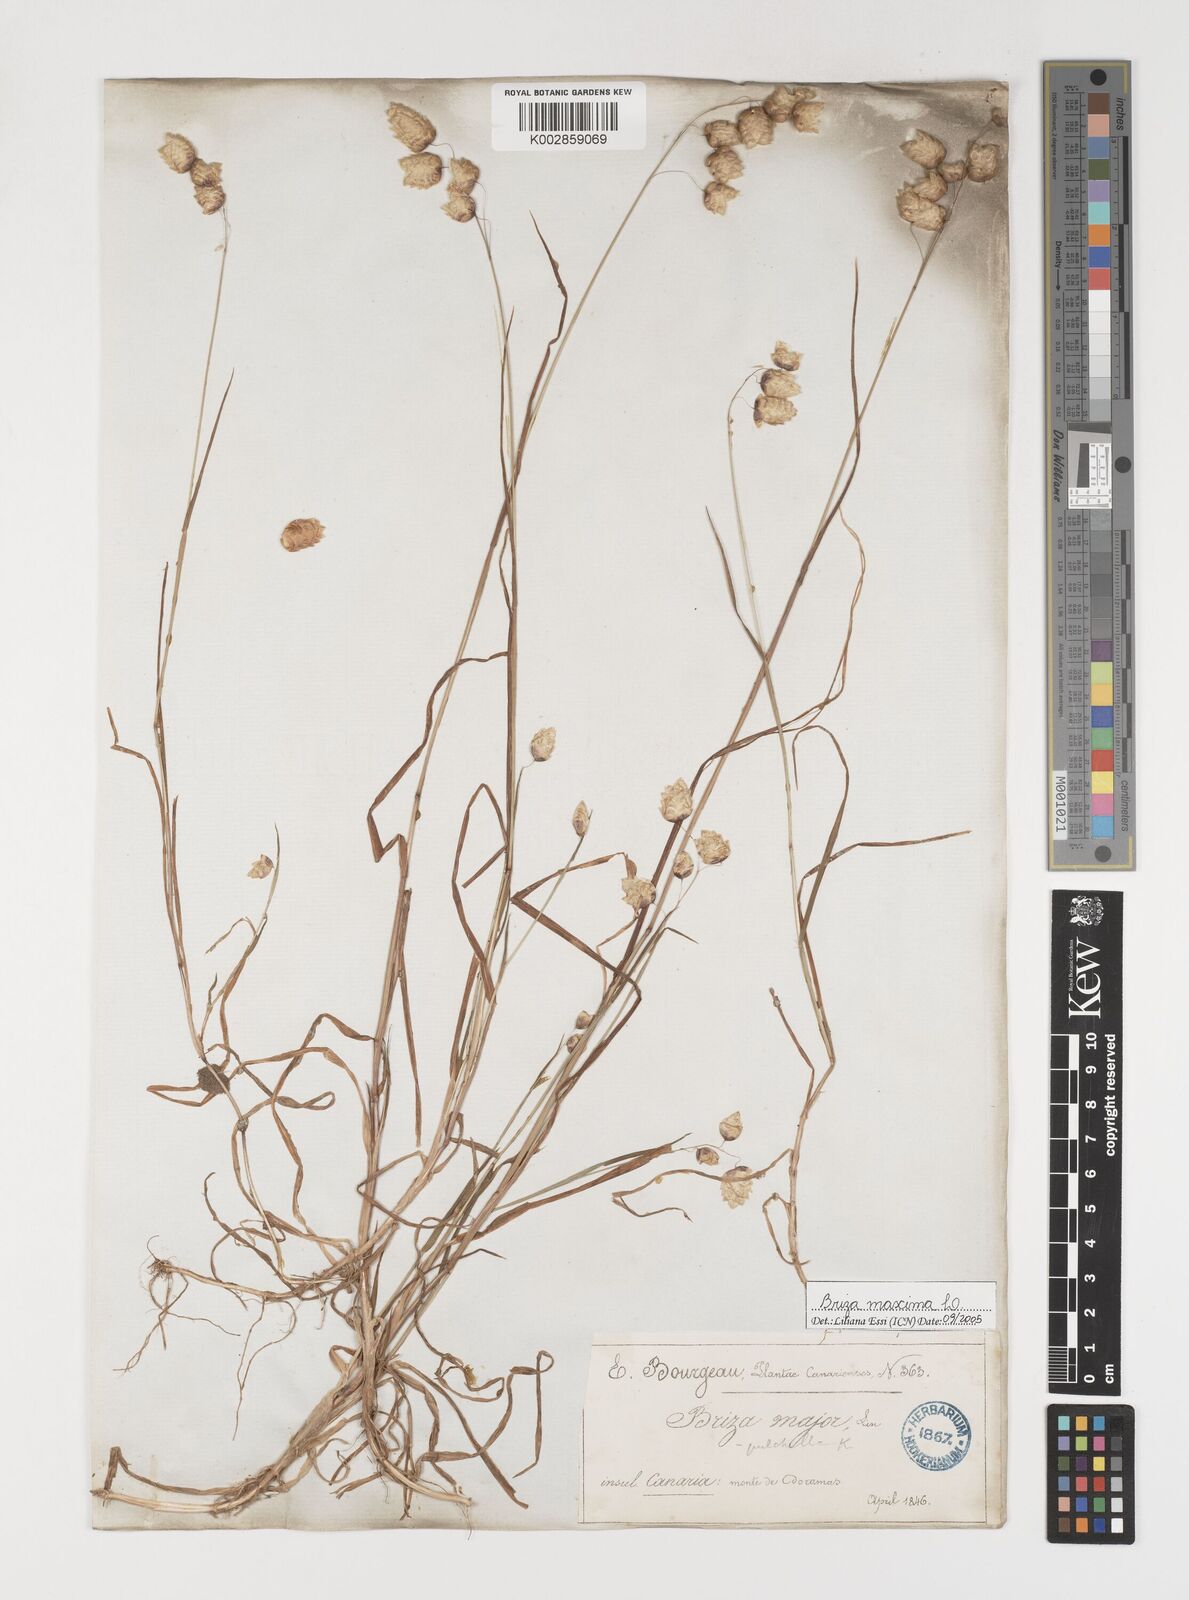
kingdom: Plantae
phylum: Tracheophyta
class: Liliopsida
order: Poales
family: Poaceae
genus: Briza
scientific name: Briza maxima
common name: Big quakinggrass
